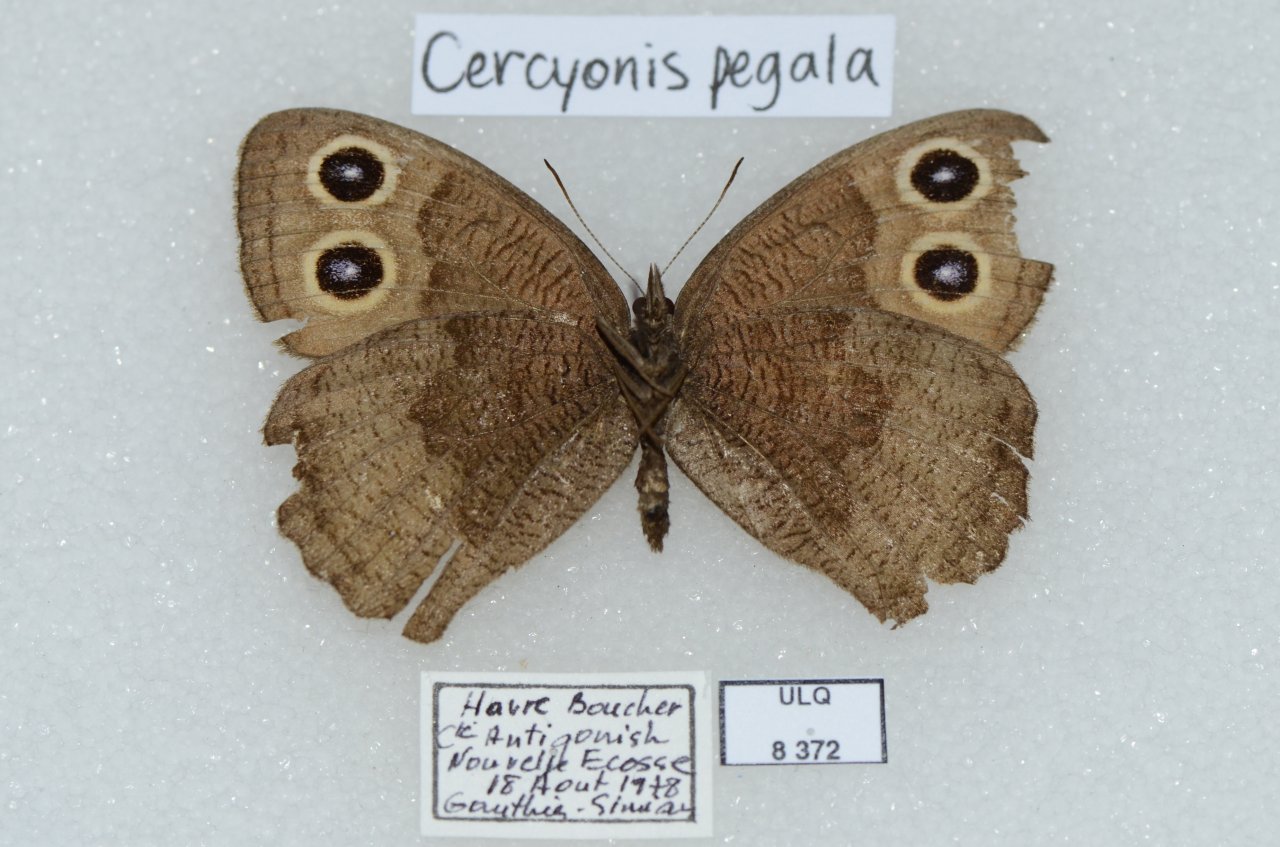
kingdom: Animalia
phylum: Arthropoda
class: Insecta
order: Lepidoptera
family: Nymphalidae
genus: Cercyonis
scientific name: Cercyonis pegala
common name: Common Wood-Nymph
